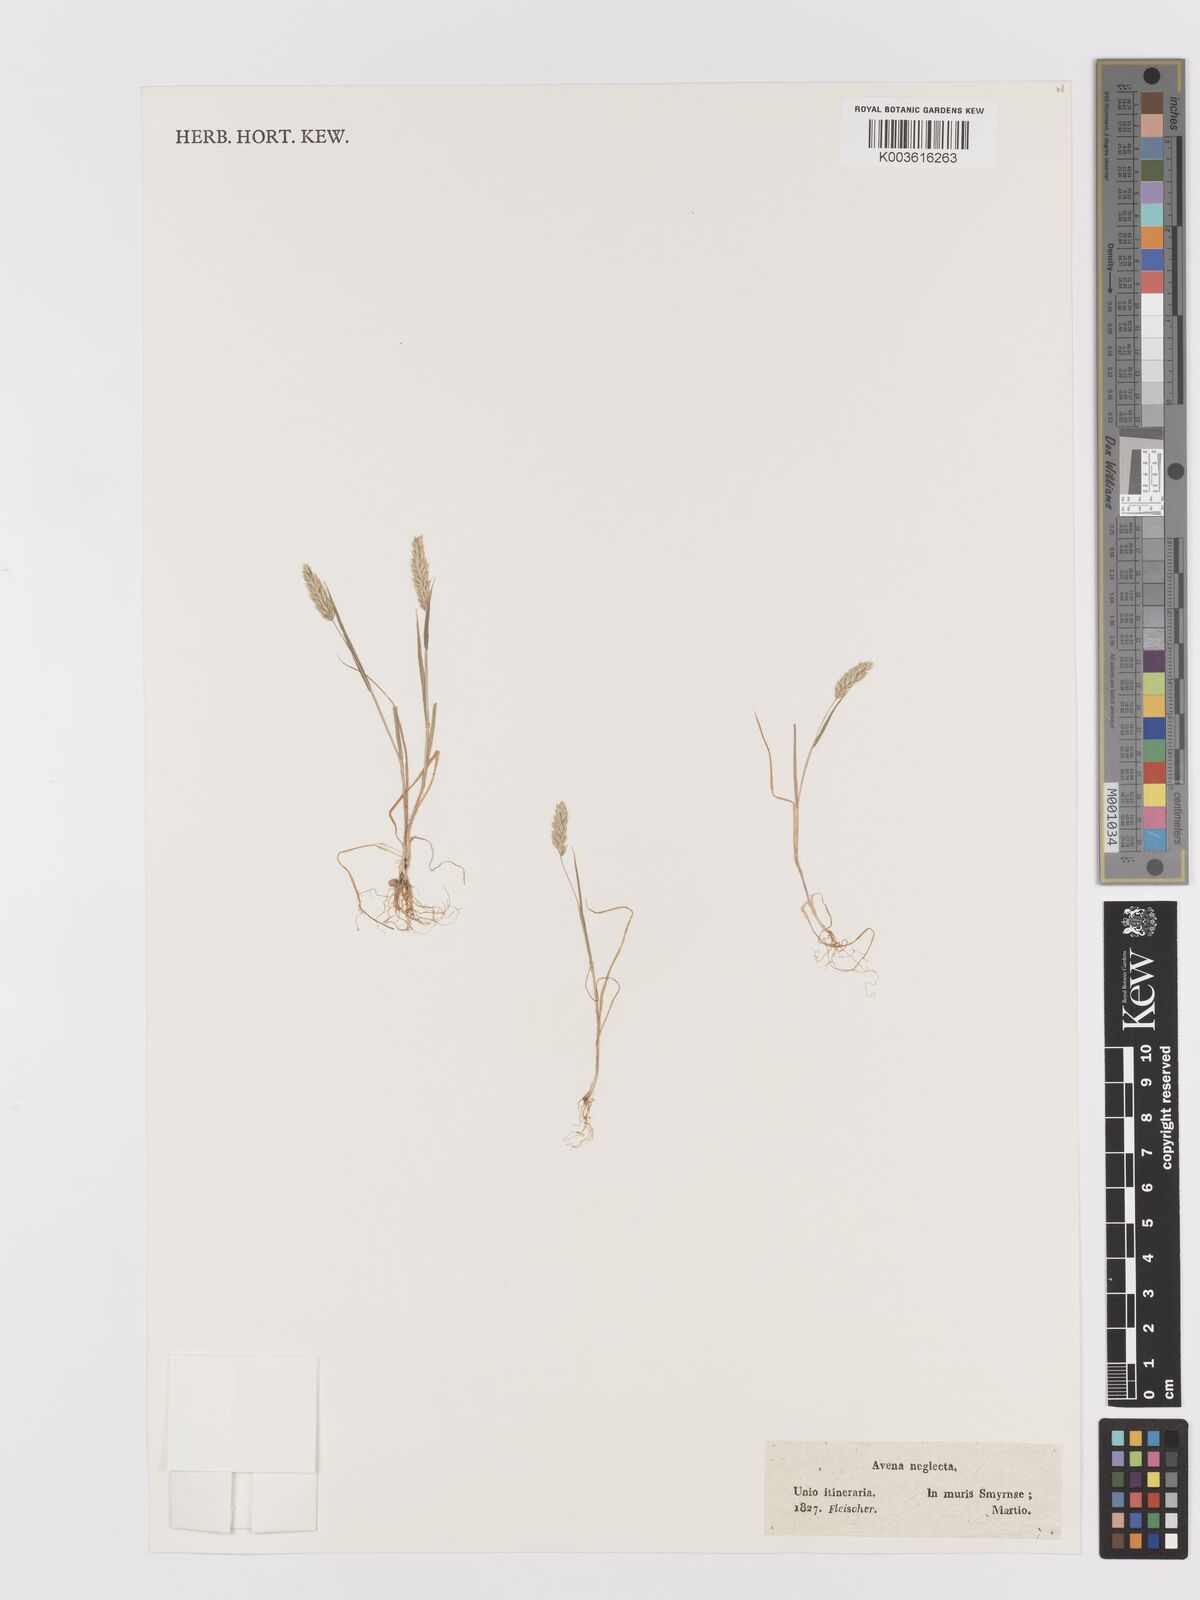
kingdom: Plantae
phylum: Tracheophyta
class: Liliopsida
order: Poales
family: Poaceae
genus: Trisetaria
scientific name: Trisetaria
